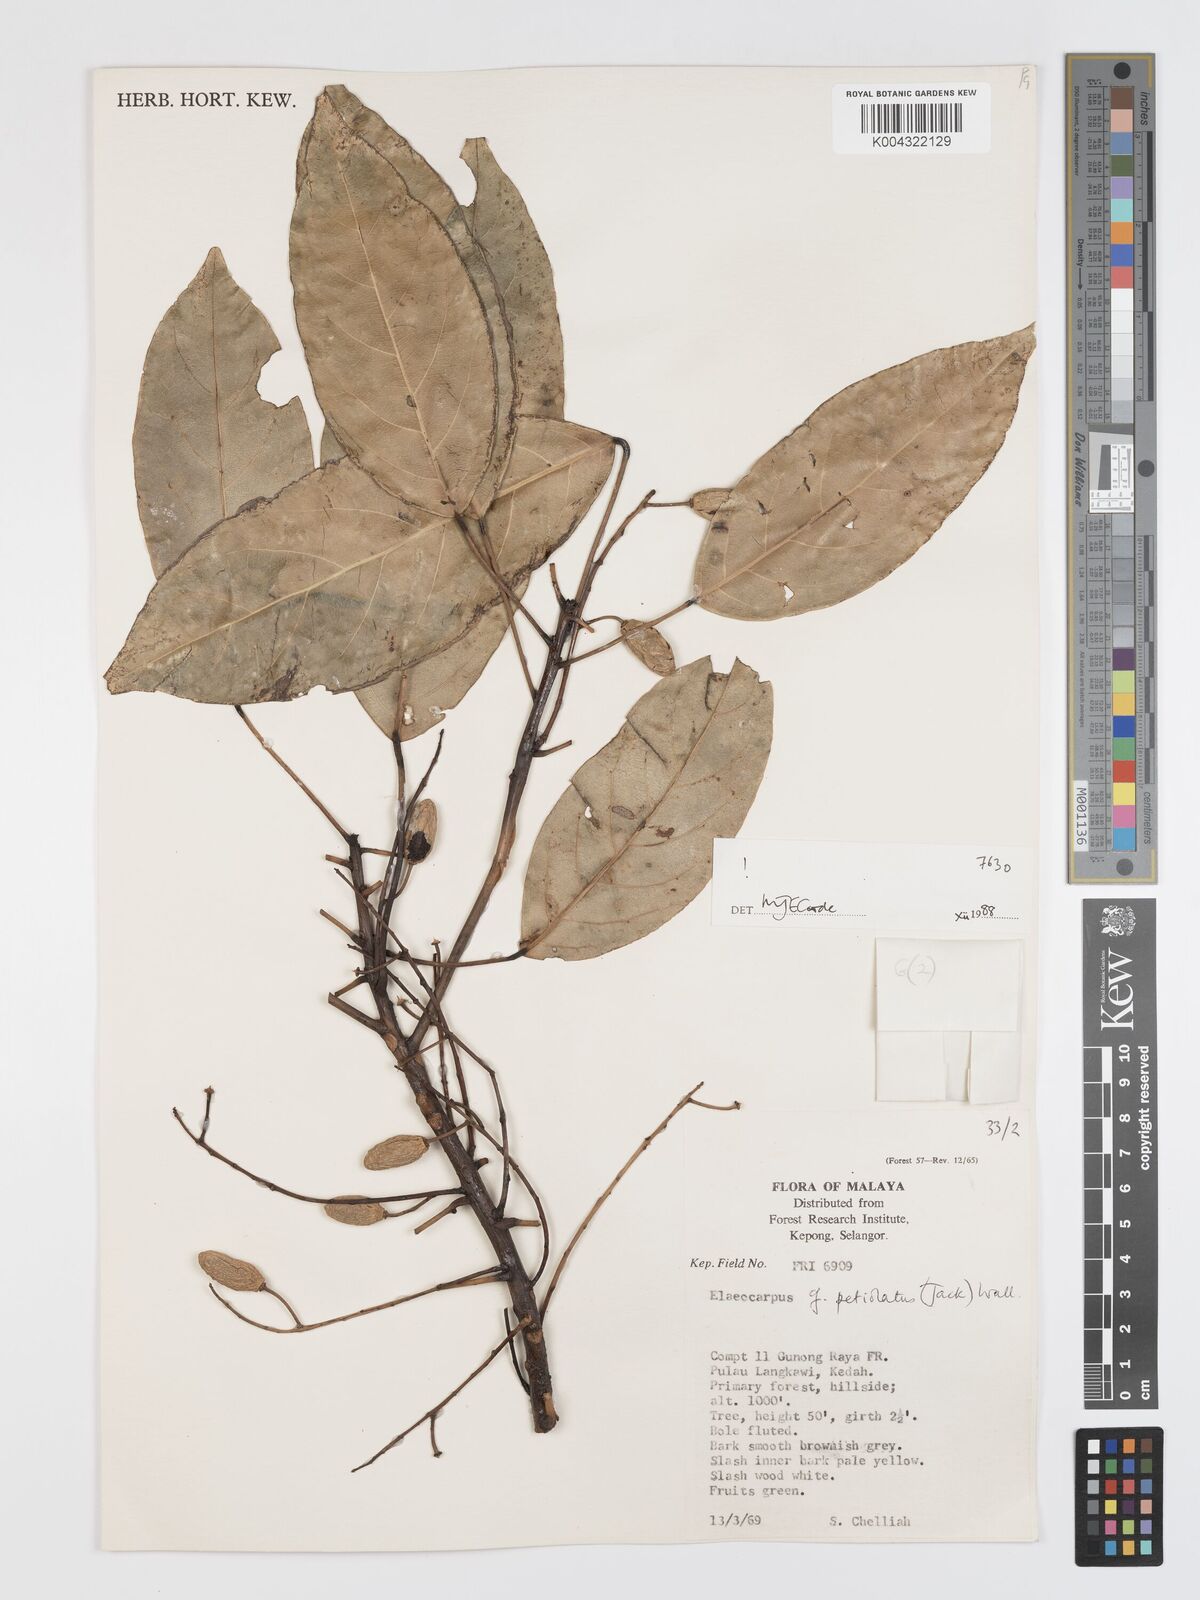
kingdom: Plantae
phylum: Tracheophyta
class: Magnoliopsida
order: Oxalidales
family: Elaeocarpaceae
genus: Elaeocarpus
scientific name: Elaeocarpus petiolatus
